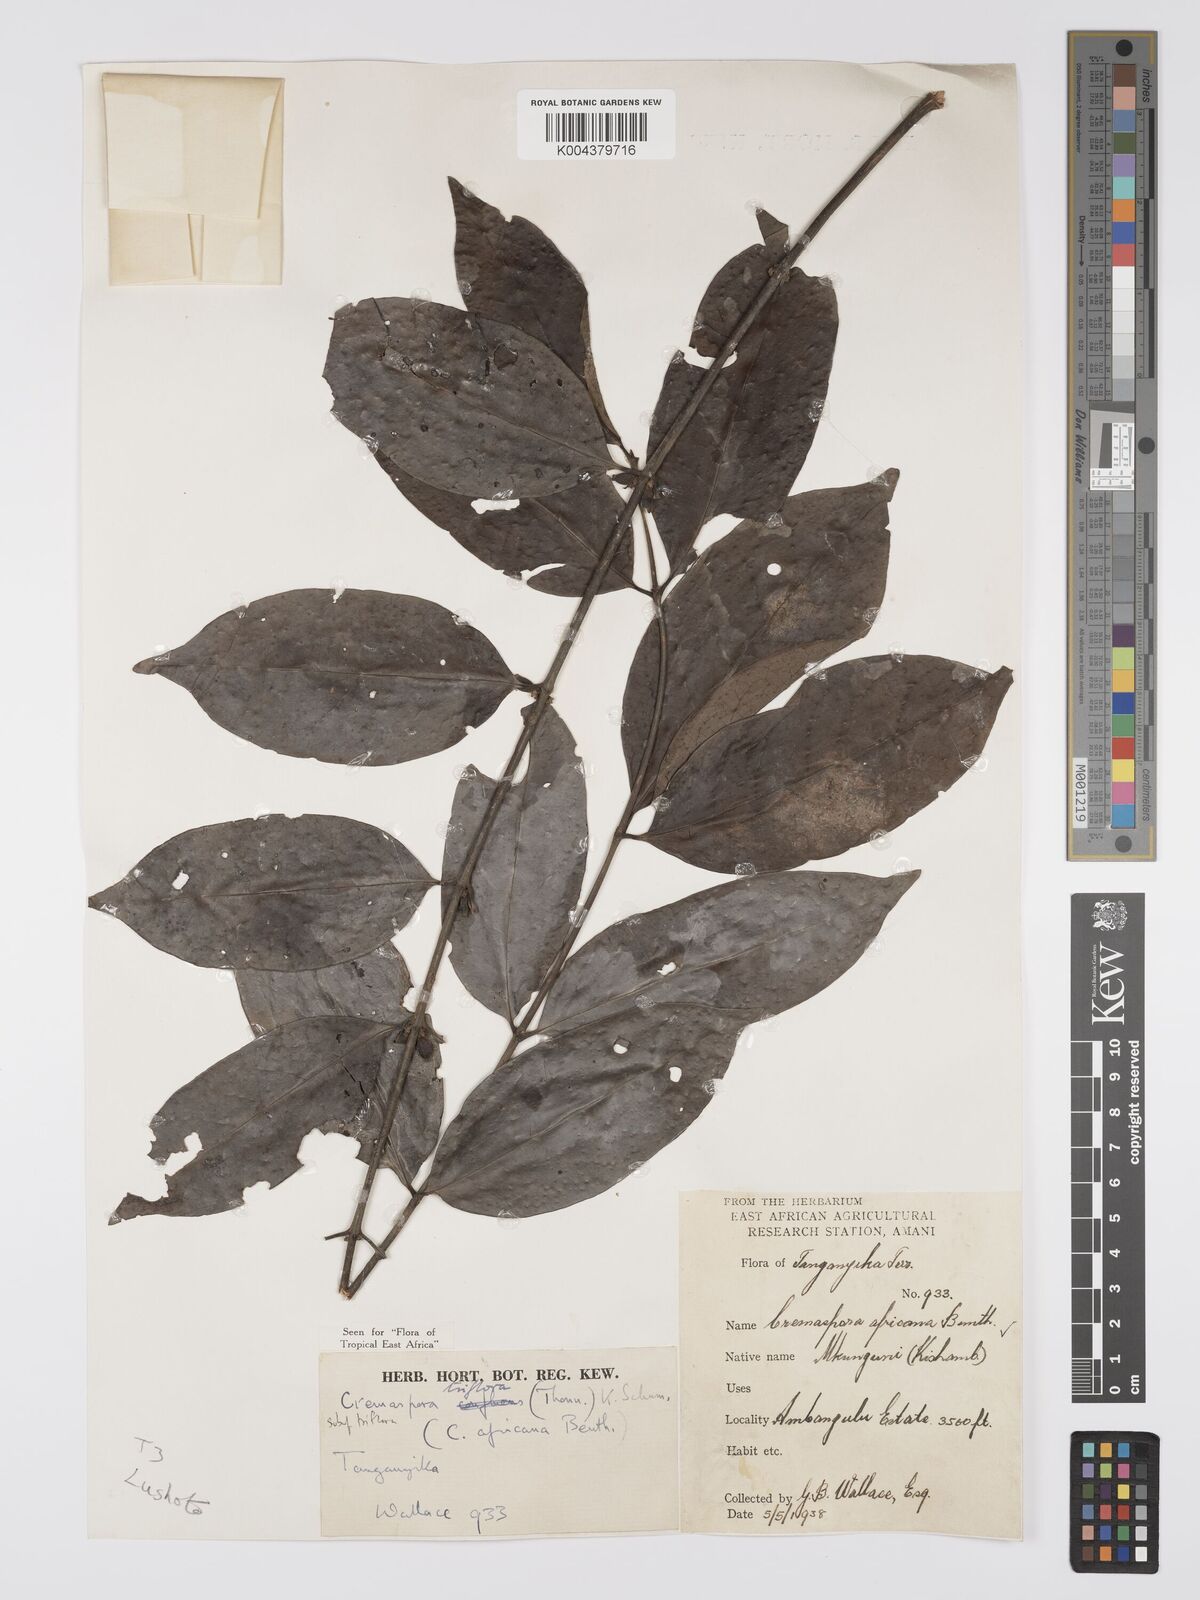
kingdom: Plantae
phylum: Tracheophyta
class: Magnoliopsida
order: Gentianales
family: Rubiaceae
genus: Cremaspora
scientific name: Cremaspora triflora
